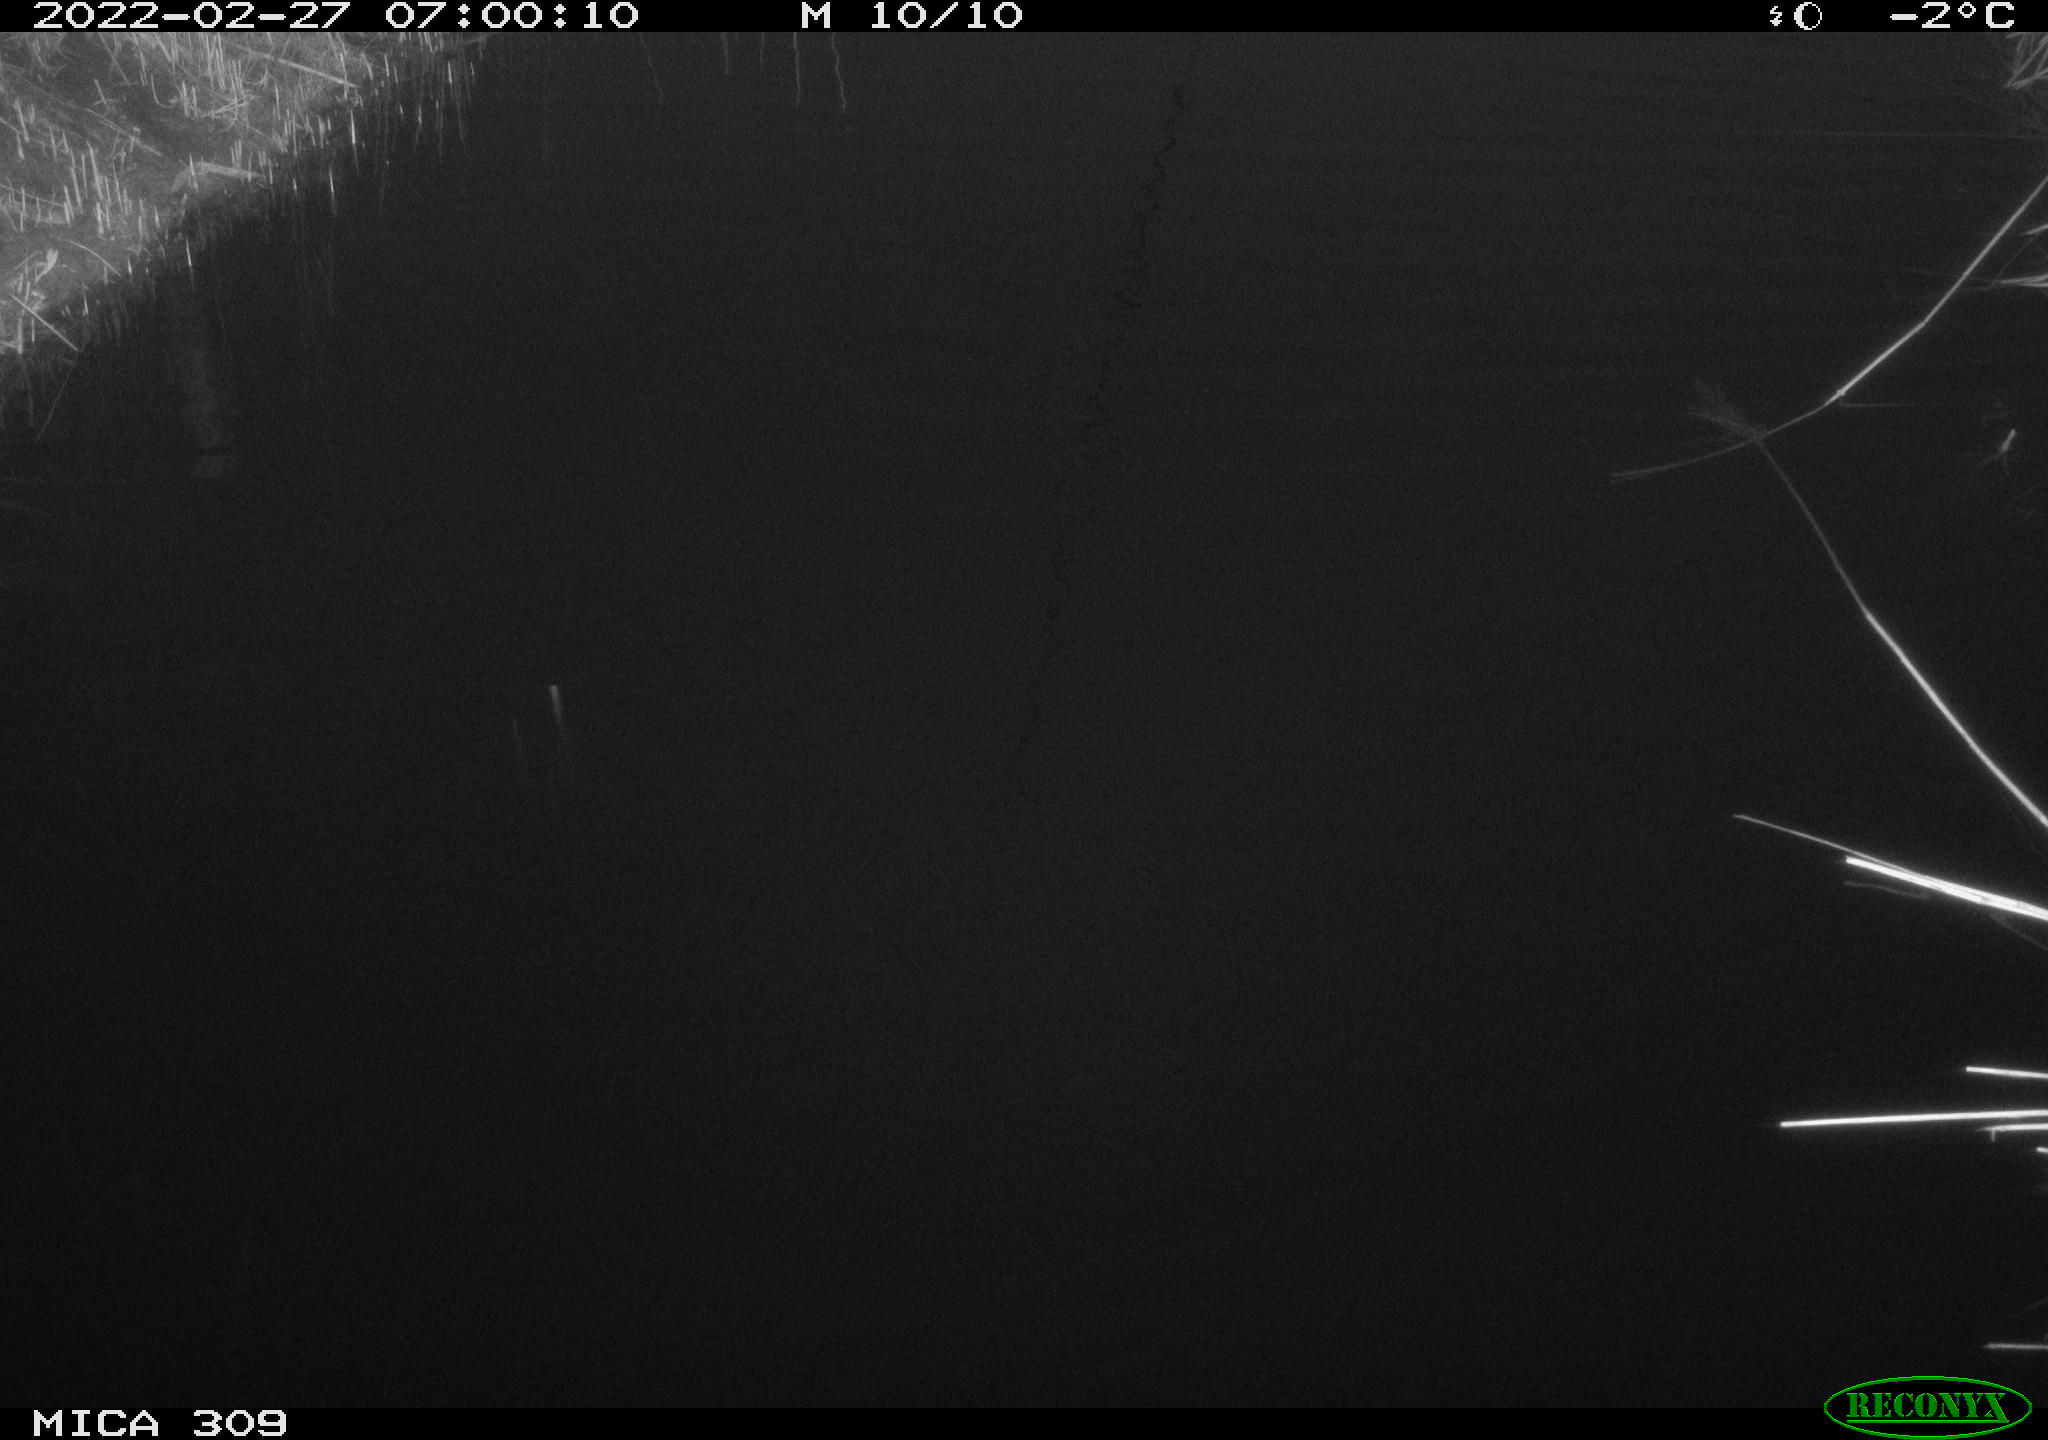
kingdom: Animalia
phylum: Chordata
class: Aves
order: Gruiformes
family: Rallidae
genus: Gallinula
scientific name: Gallinula chloropus
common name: Common moorhen
